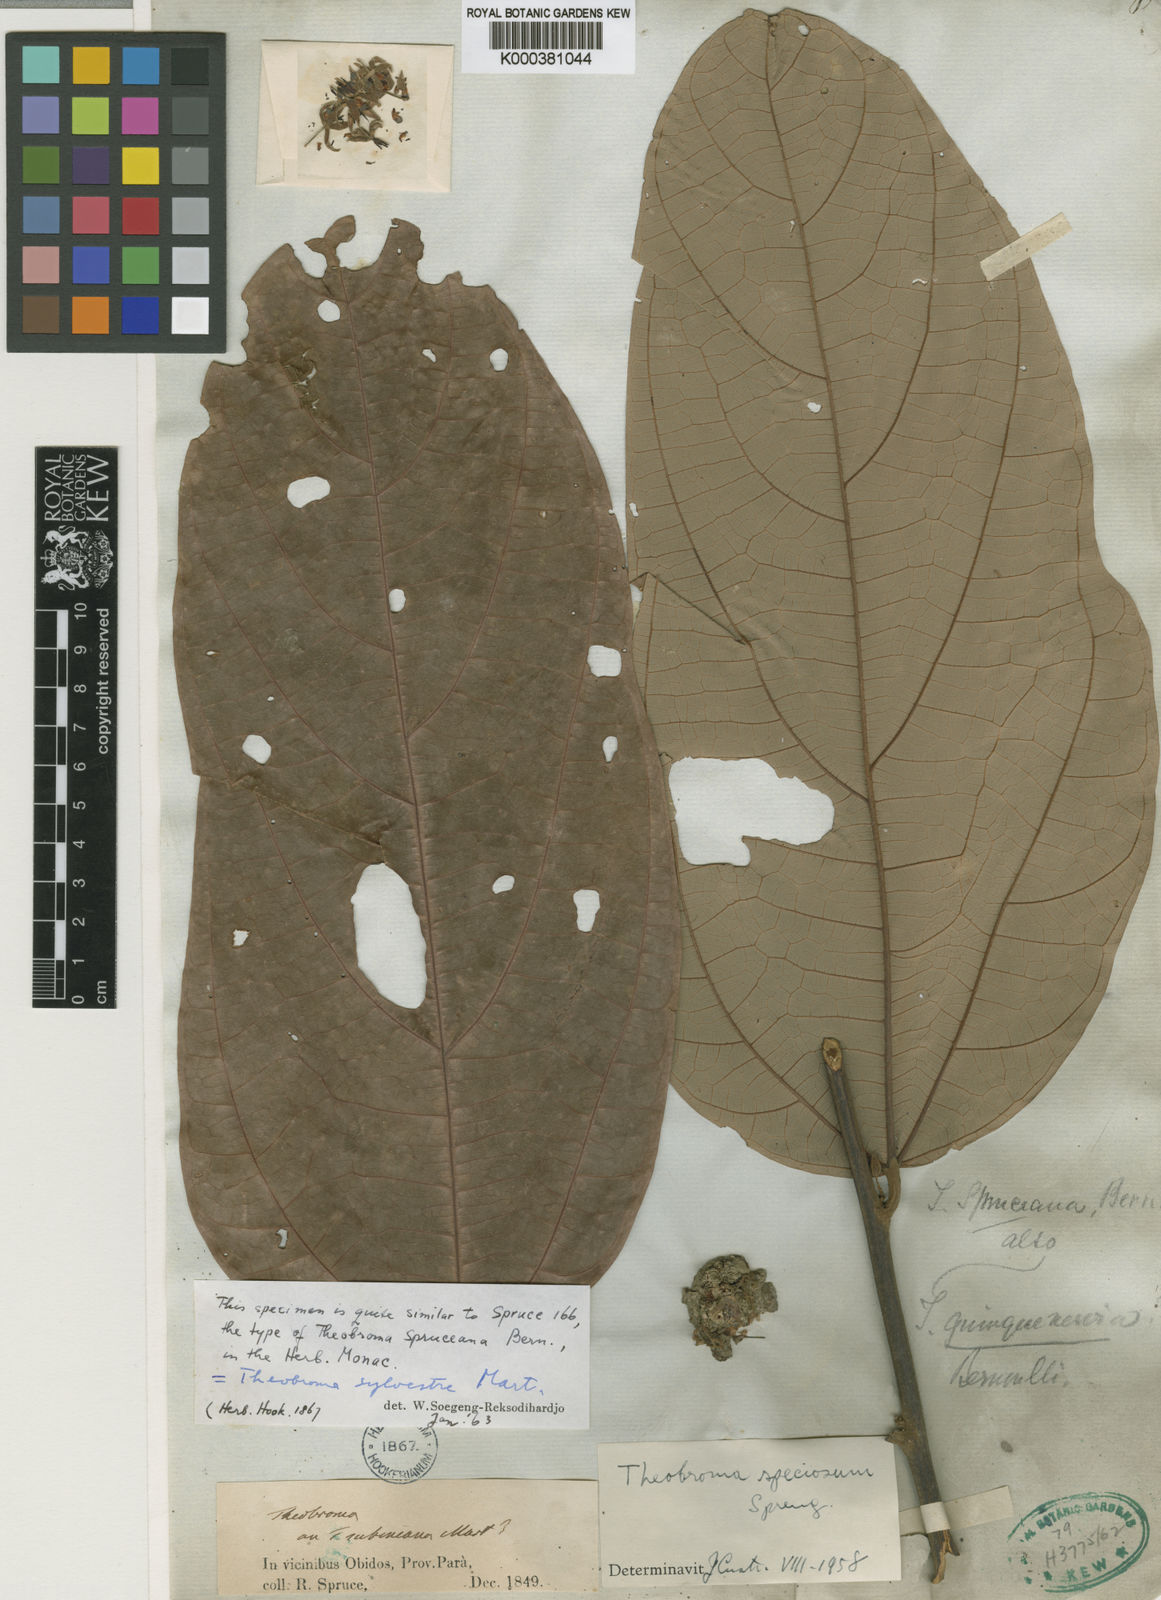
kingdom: Plantae
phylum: Tracheophyta
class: Magnoliopsida
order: Malvales
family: Malvaceae
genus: Theobroma
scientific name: Theobroma speciosum
